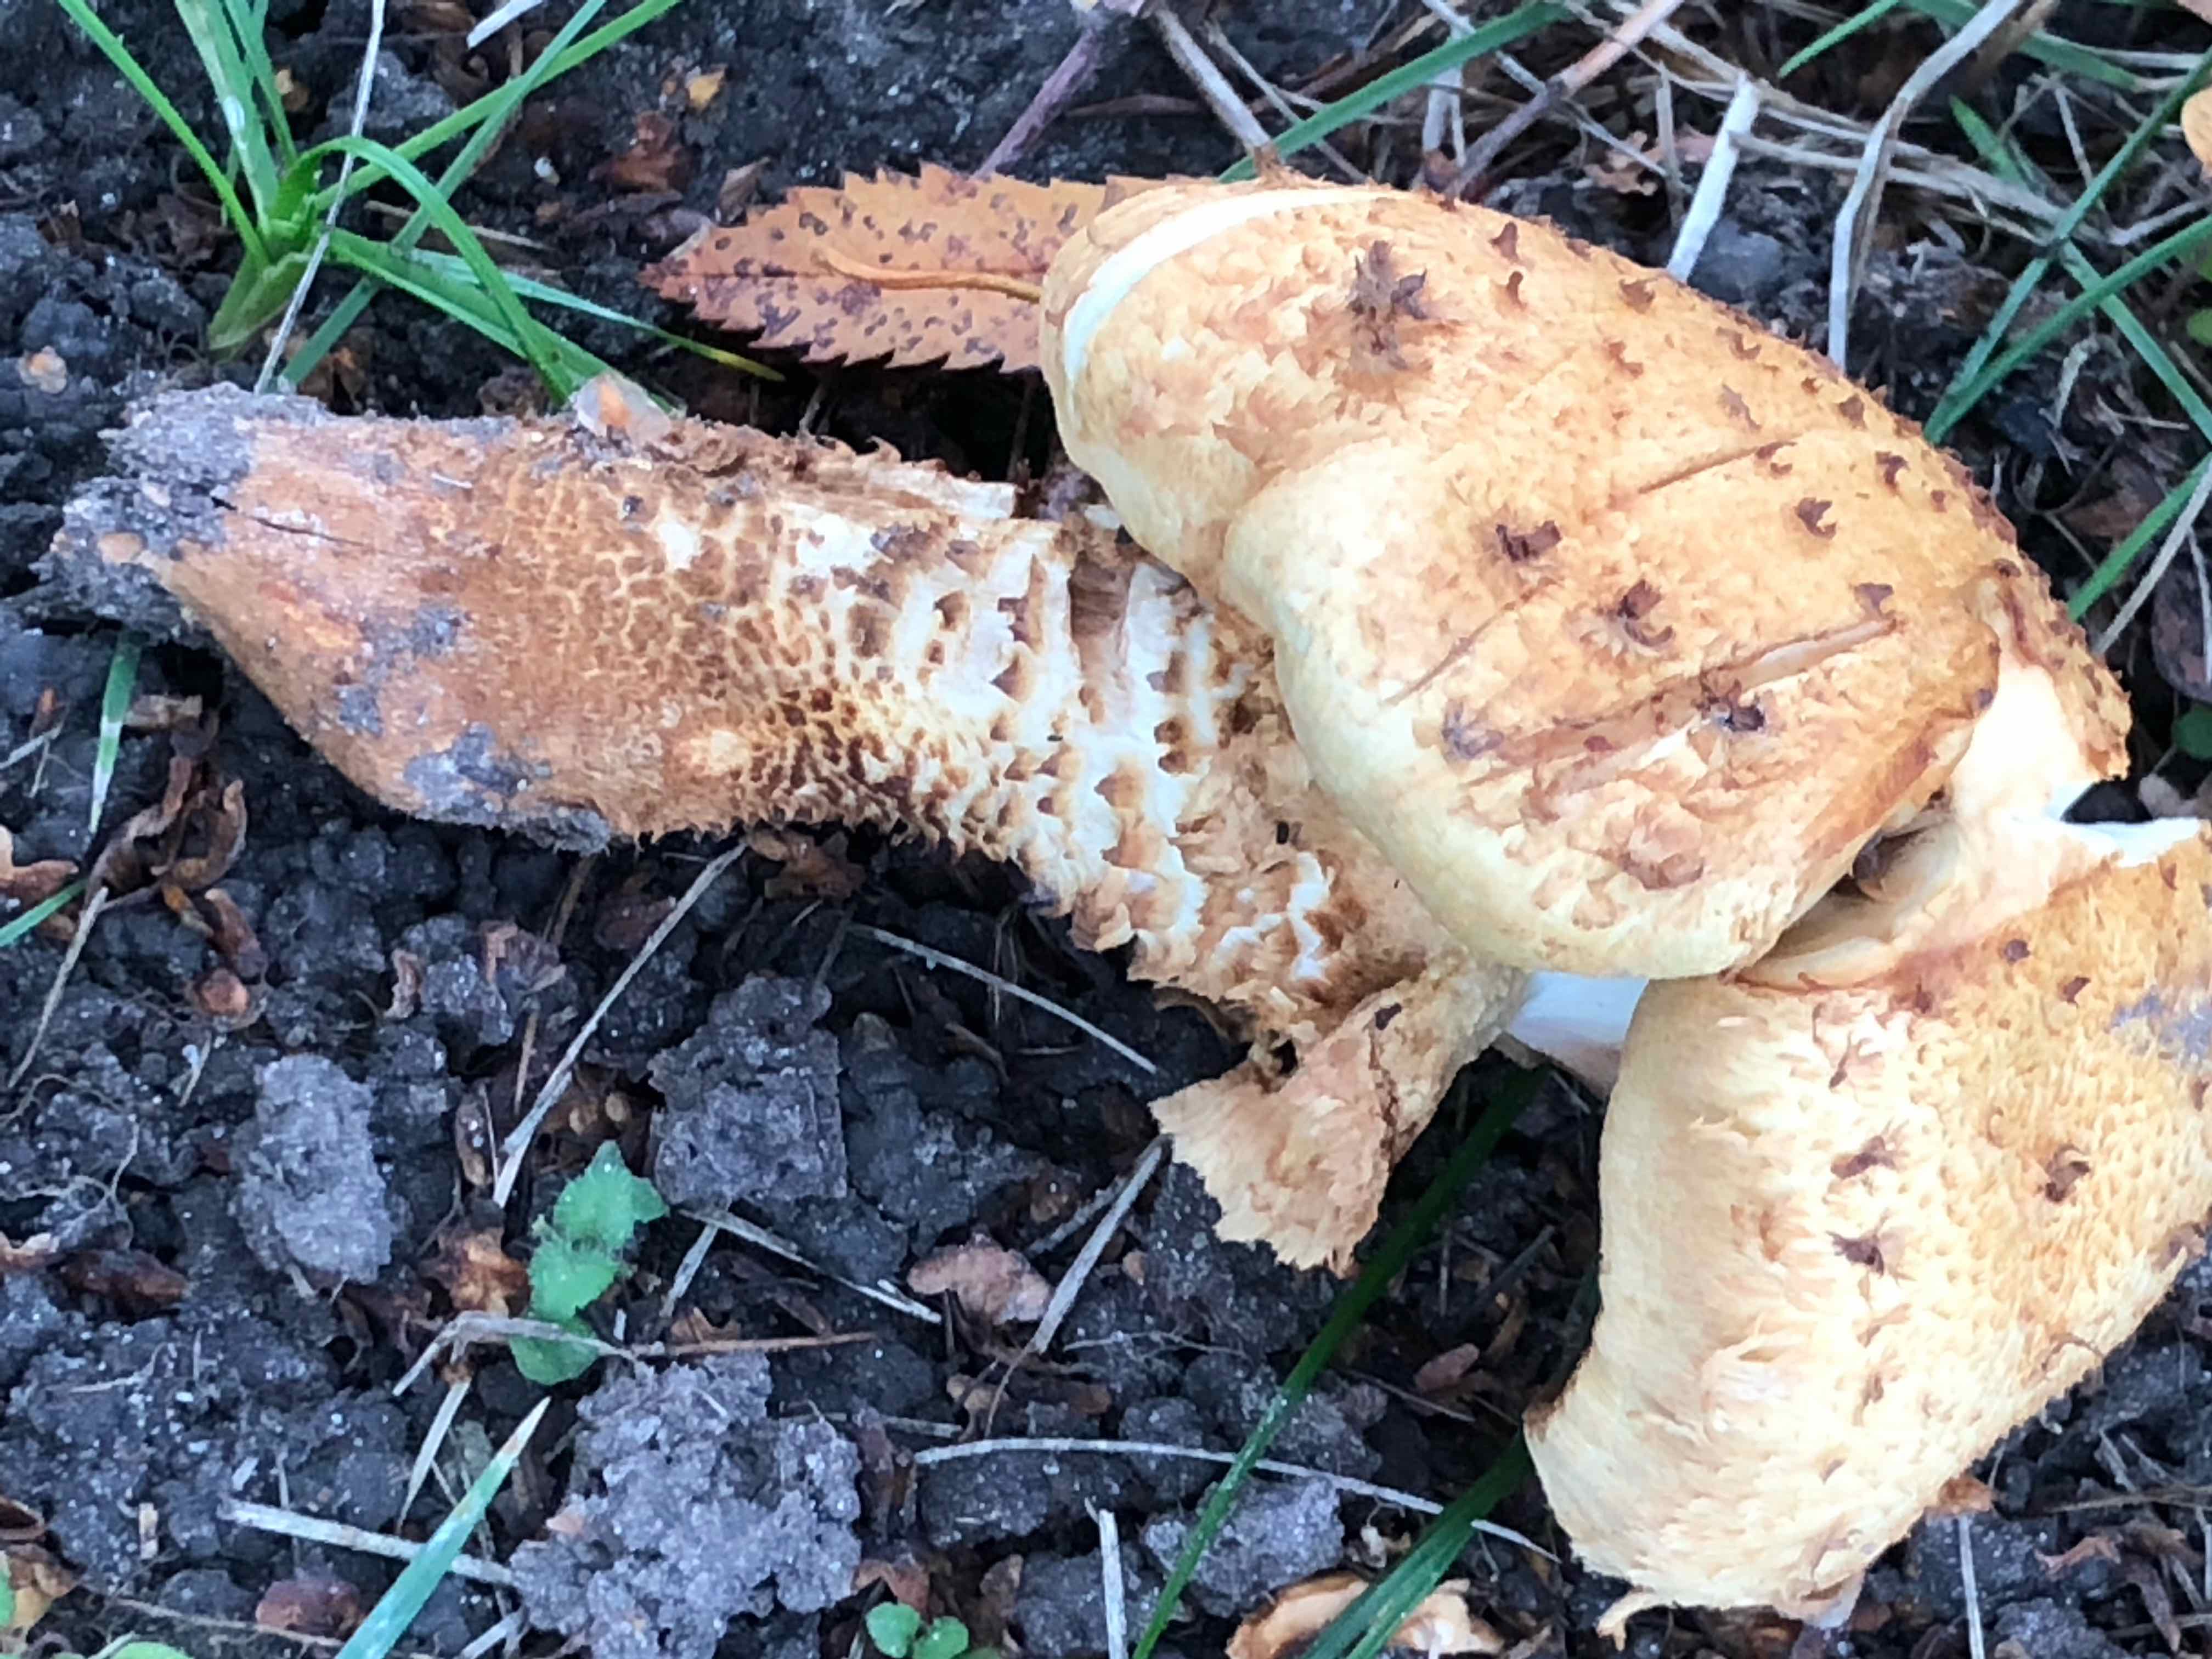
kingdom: Fungi
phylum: Basidiomycota
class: Agaricomycetes
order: Agaricales
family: Strophariaceae
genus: Pholiota
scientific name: Pholiota squarrosa
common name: krumskællet skælhat
